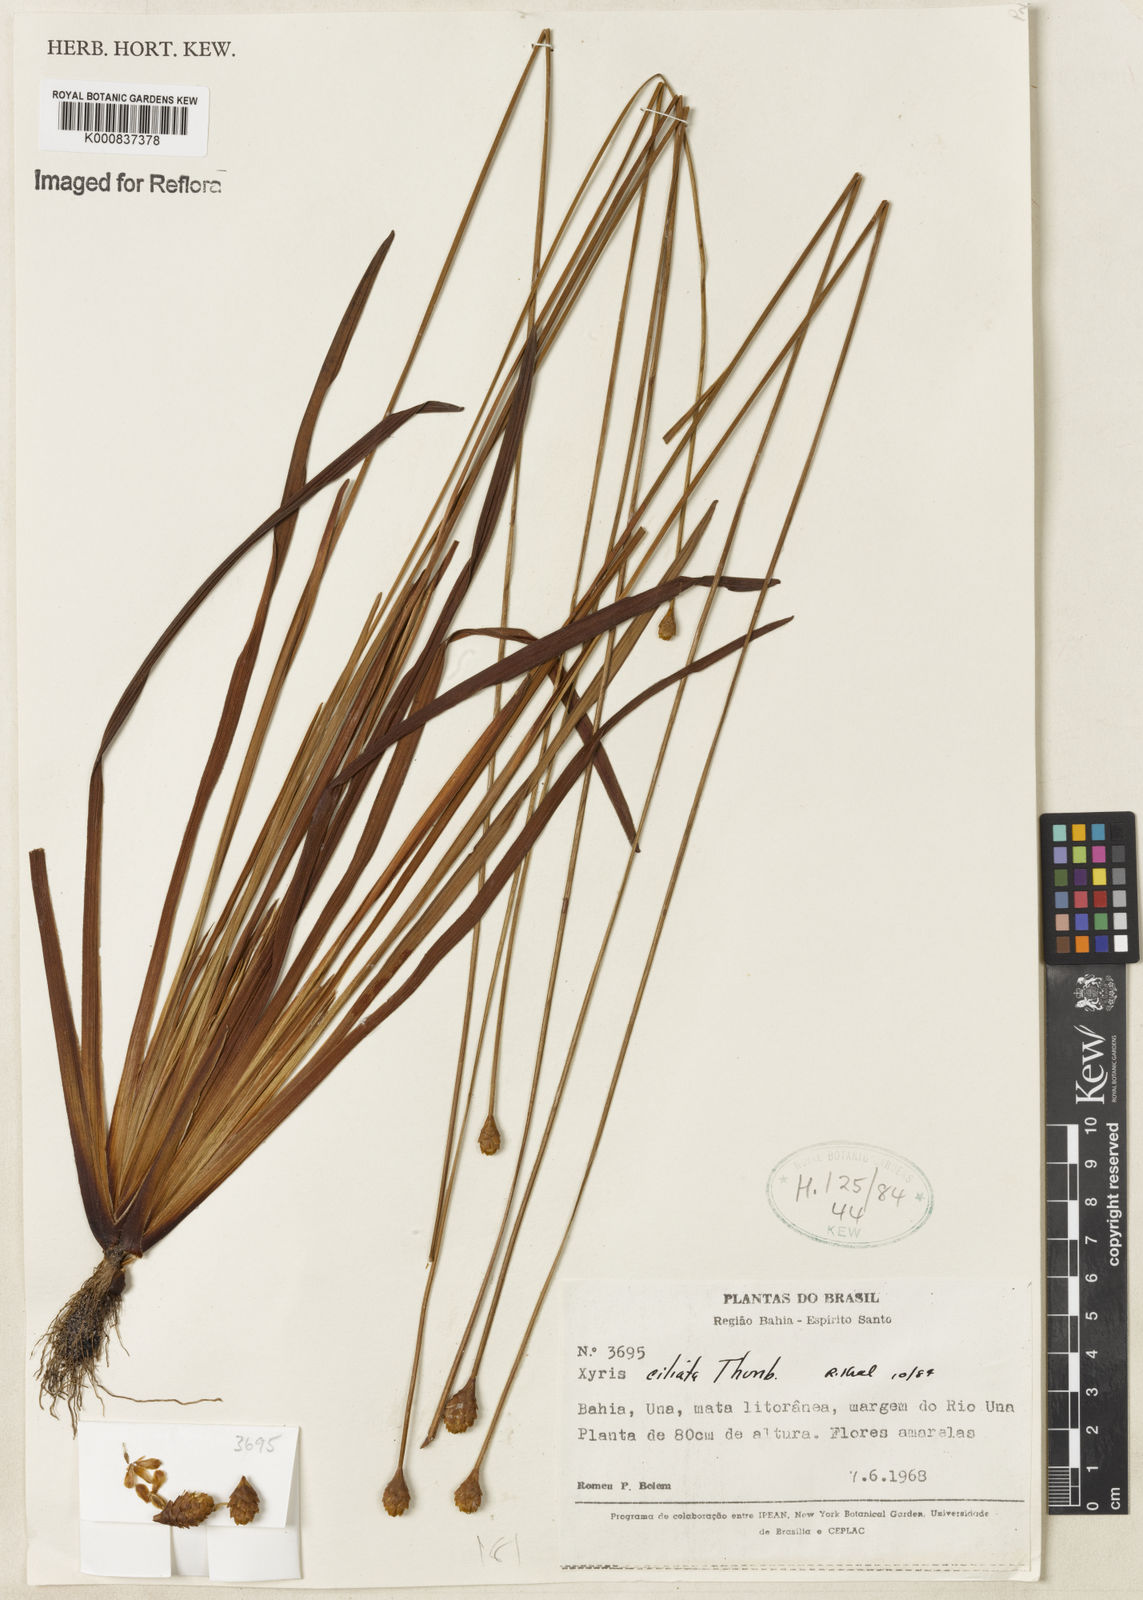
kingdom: Plantae
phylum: Tracheophyta
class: Liliopsida
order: Poales
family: Xyridaceae
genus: Xyris
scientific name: Xyris ciliata
